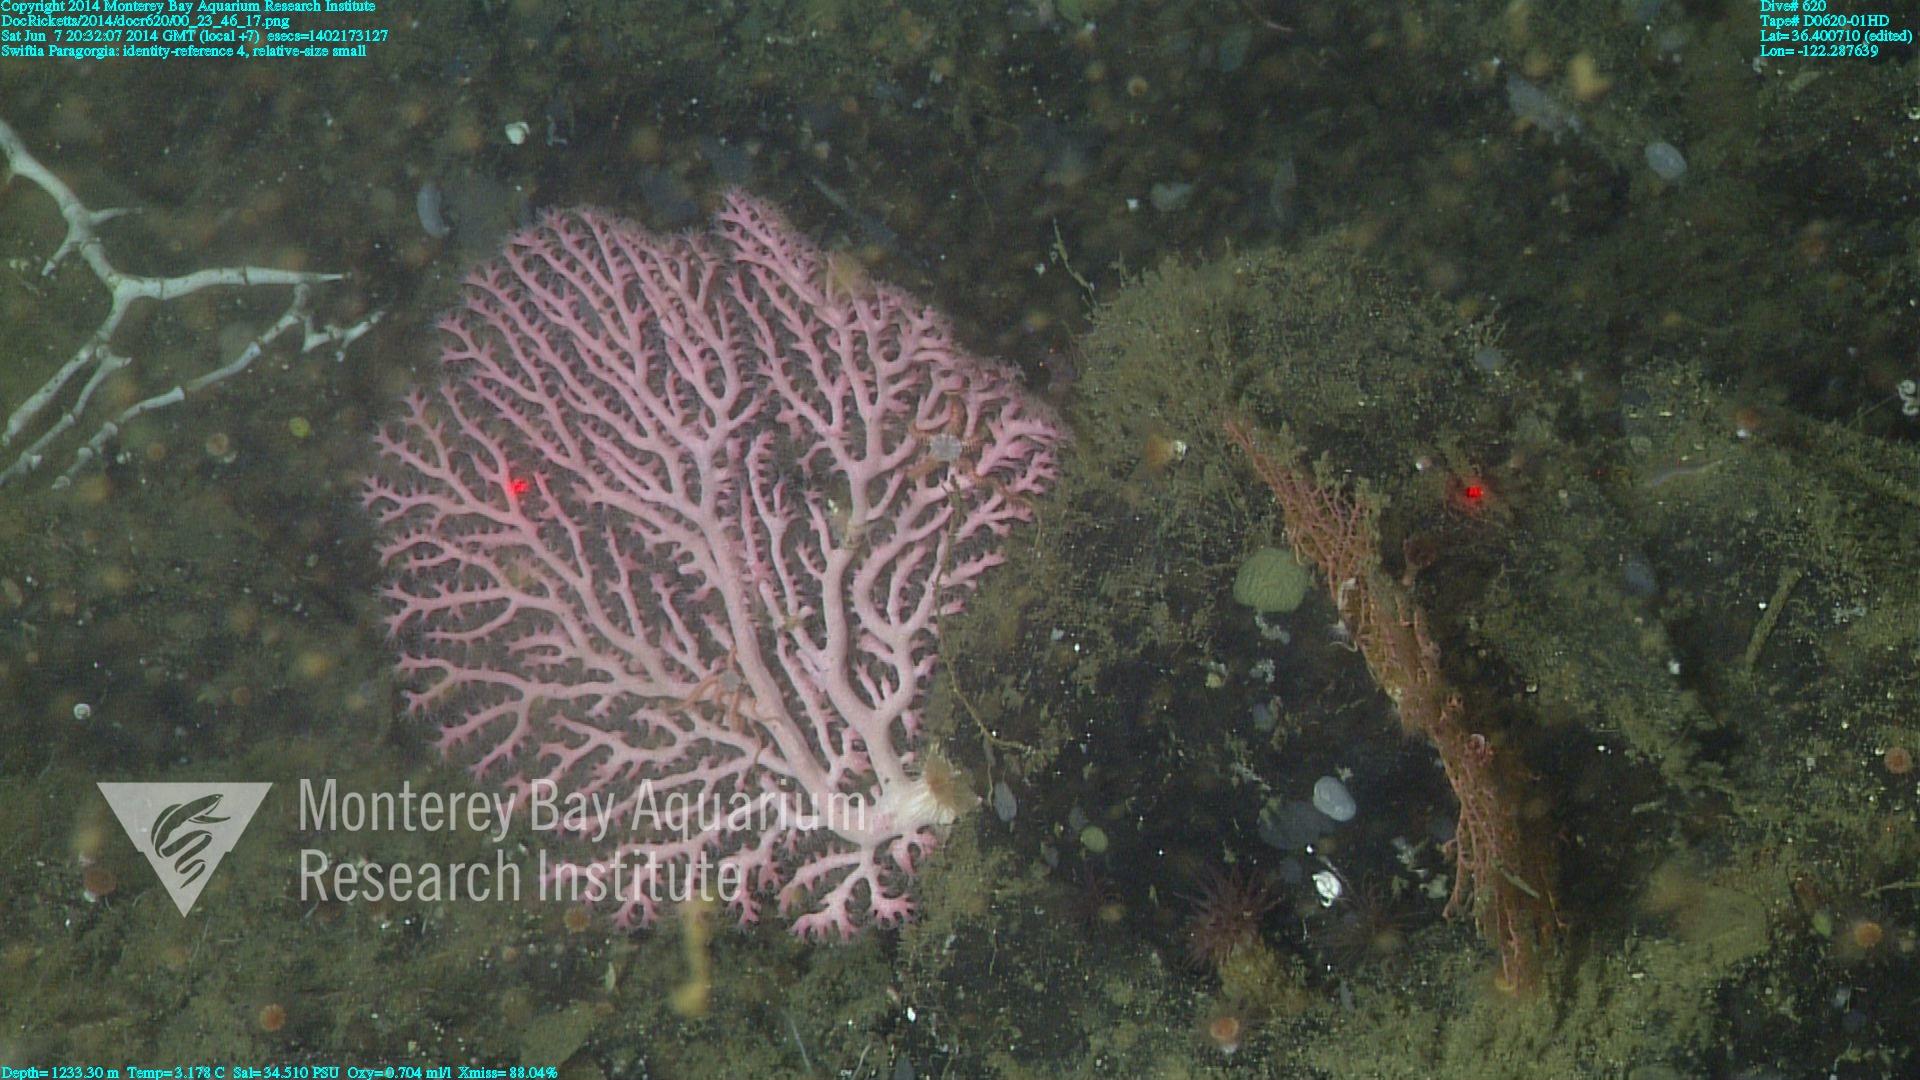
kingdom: Animalia
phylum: Cnidaria
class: Anthozoa
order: Scleralcyonacea
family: Coralliidae
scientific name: Coralliidae
